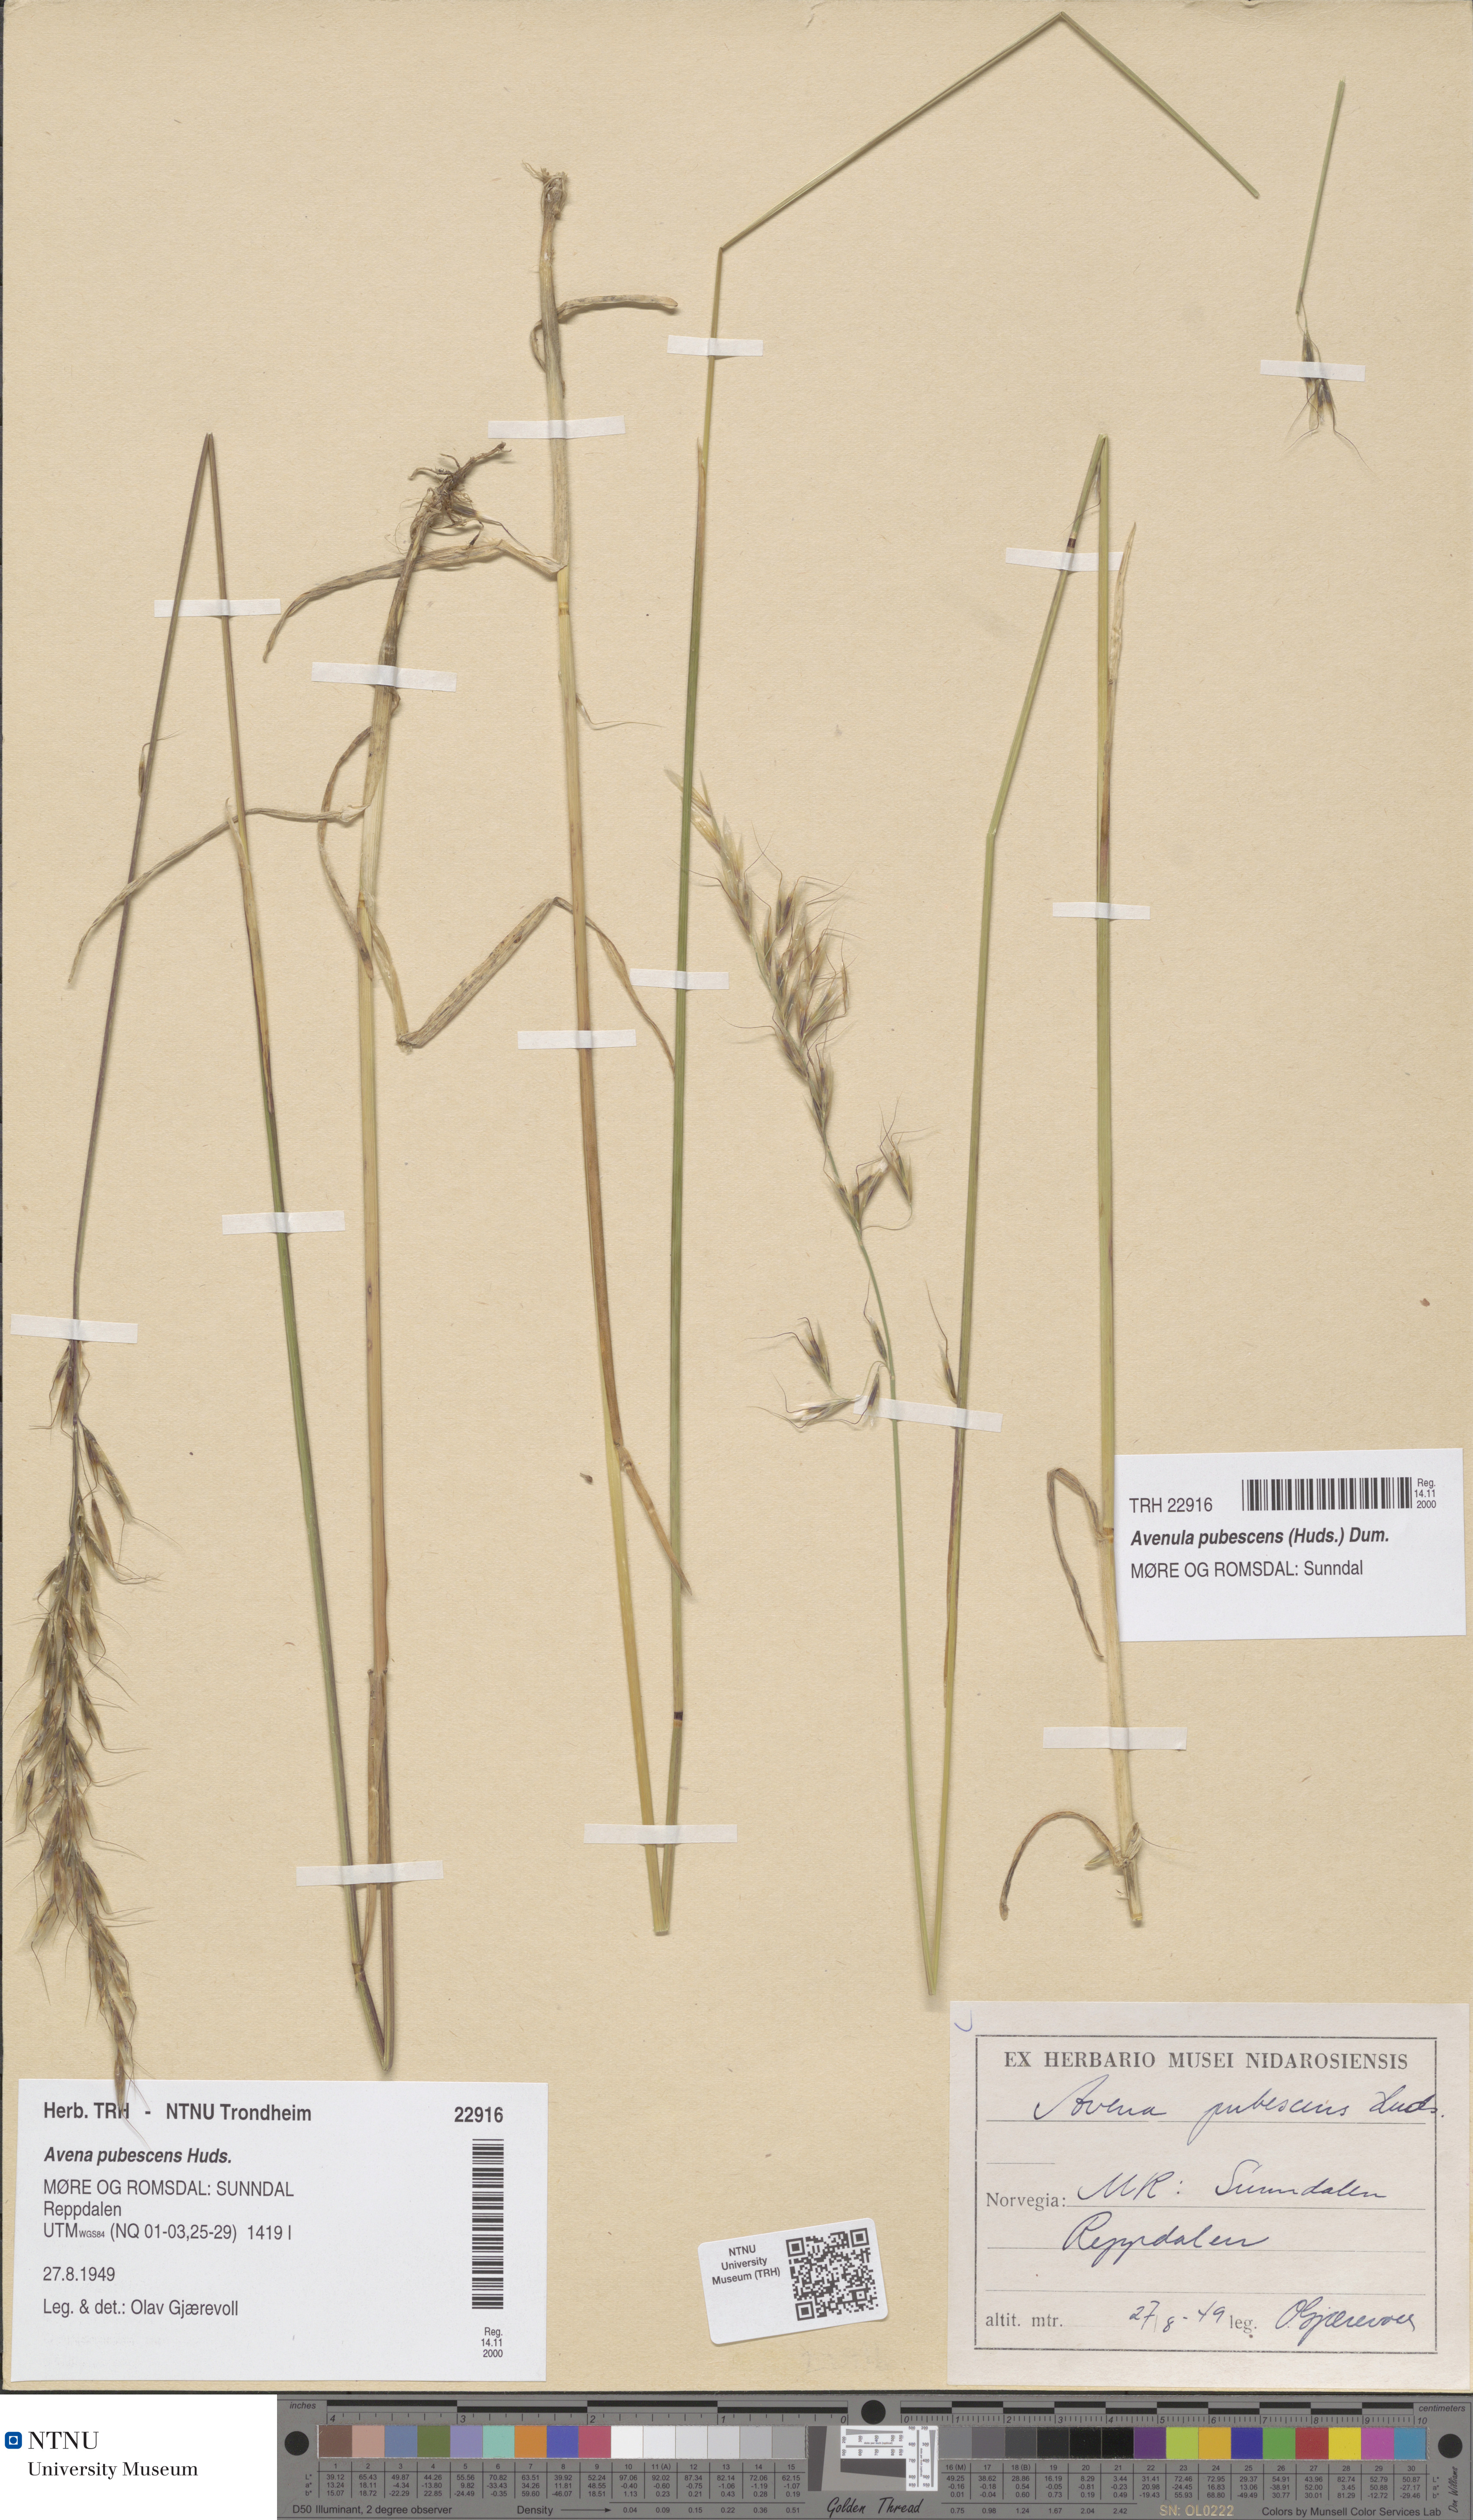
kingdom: Plantae
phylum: Tracheophyta
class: Liliopsida
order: Poales
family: Poaceae
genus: Avenula
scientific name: Avenula pubescens
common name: Downy alpine oatgrass
